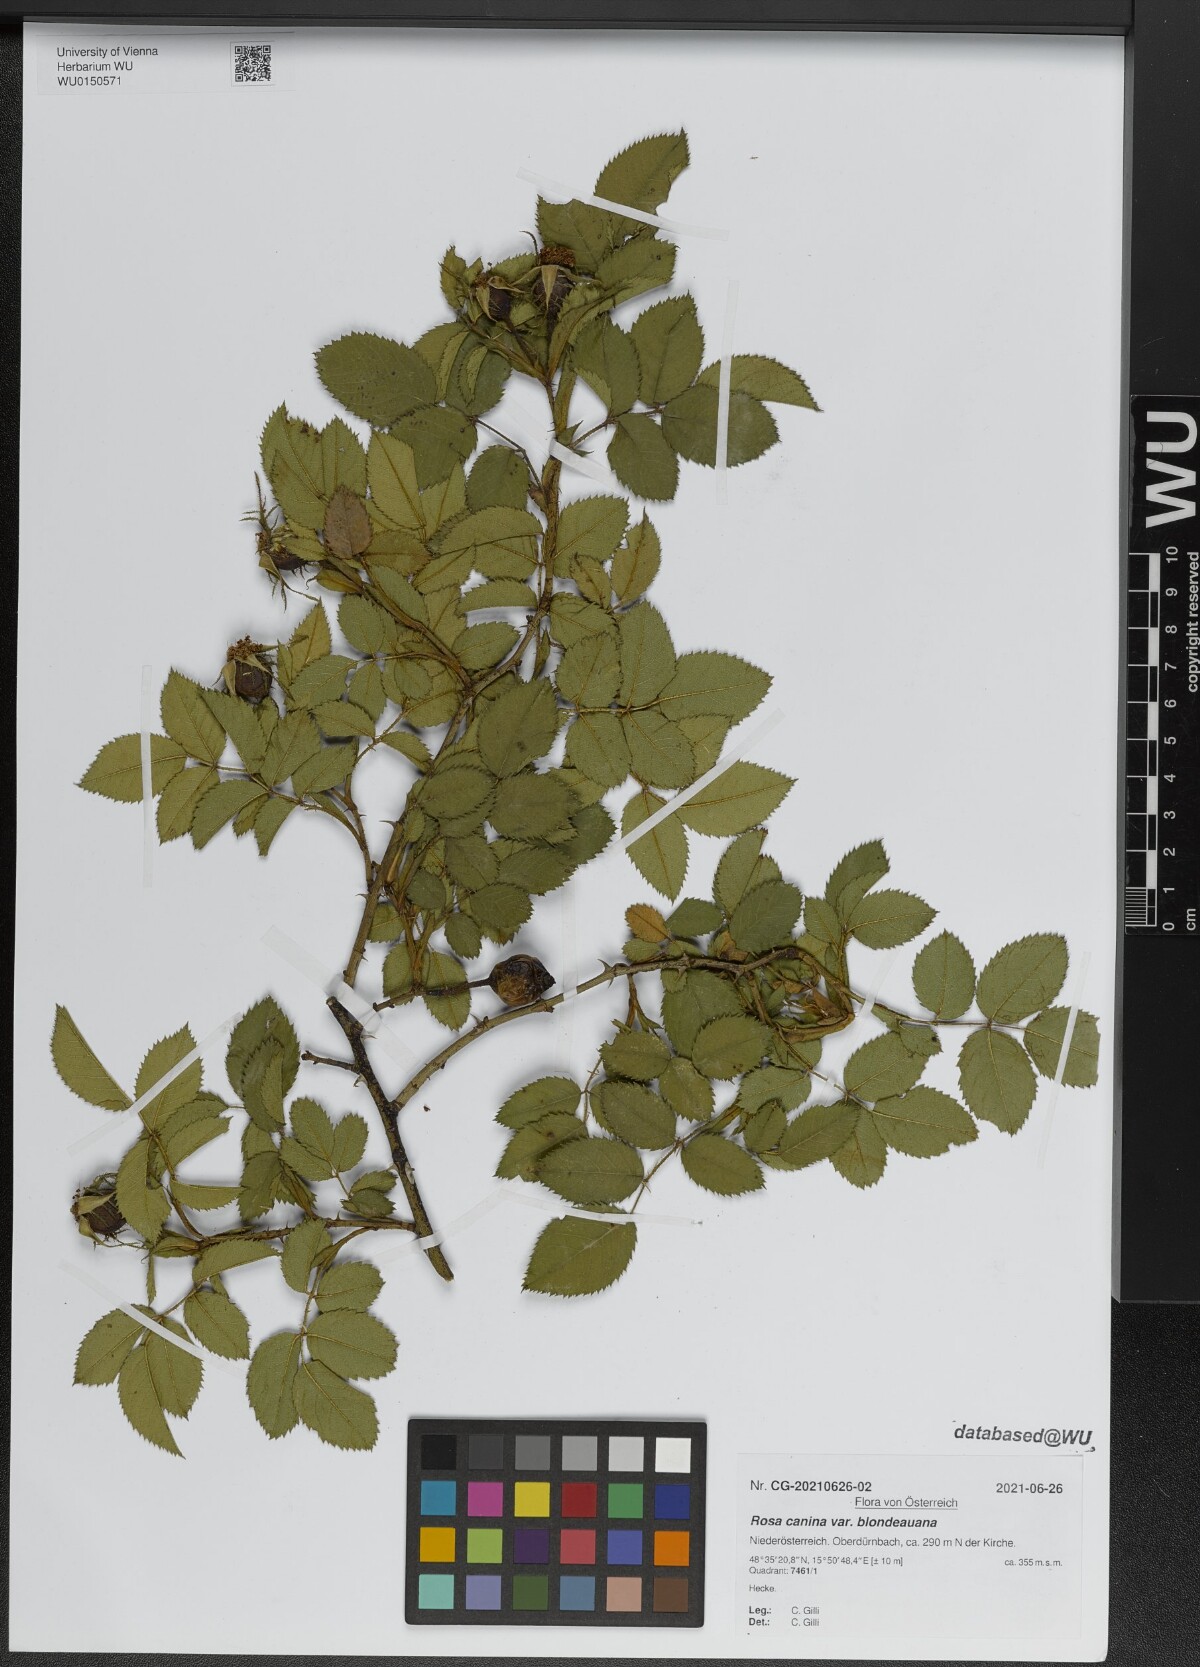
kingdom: Plantae
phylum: Tracheophyta
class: Magnoliopsida
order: Rosales
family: Rosaceae
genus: Rosa
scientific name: Rosa canina
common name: Dog rose
